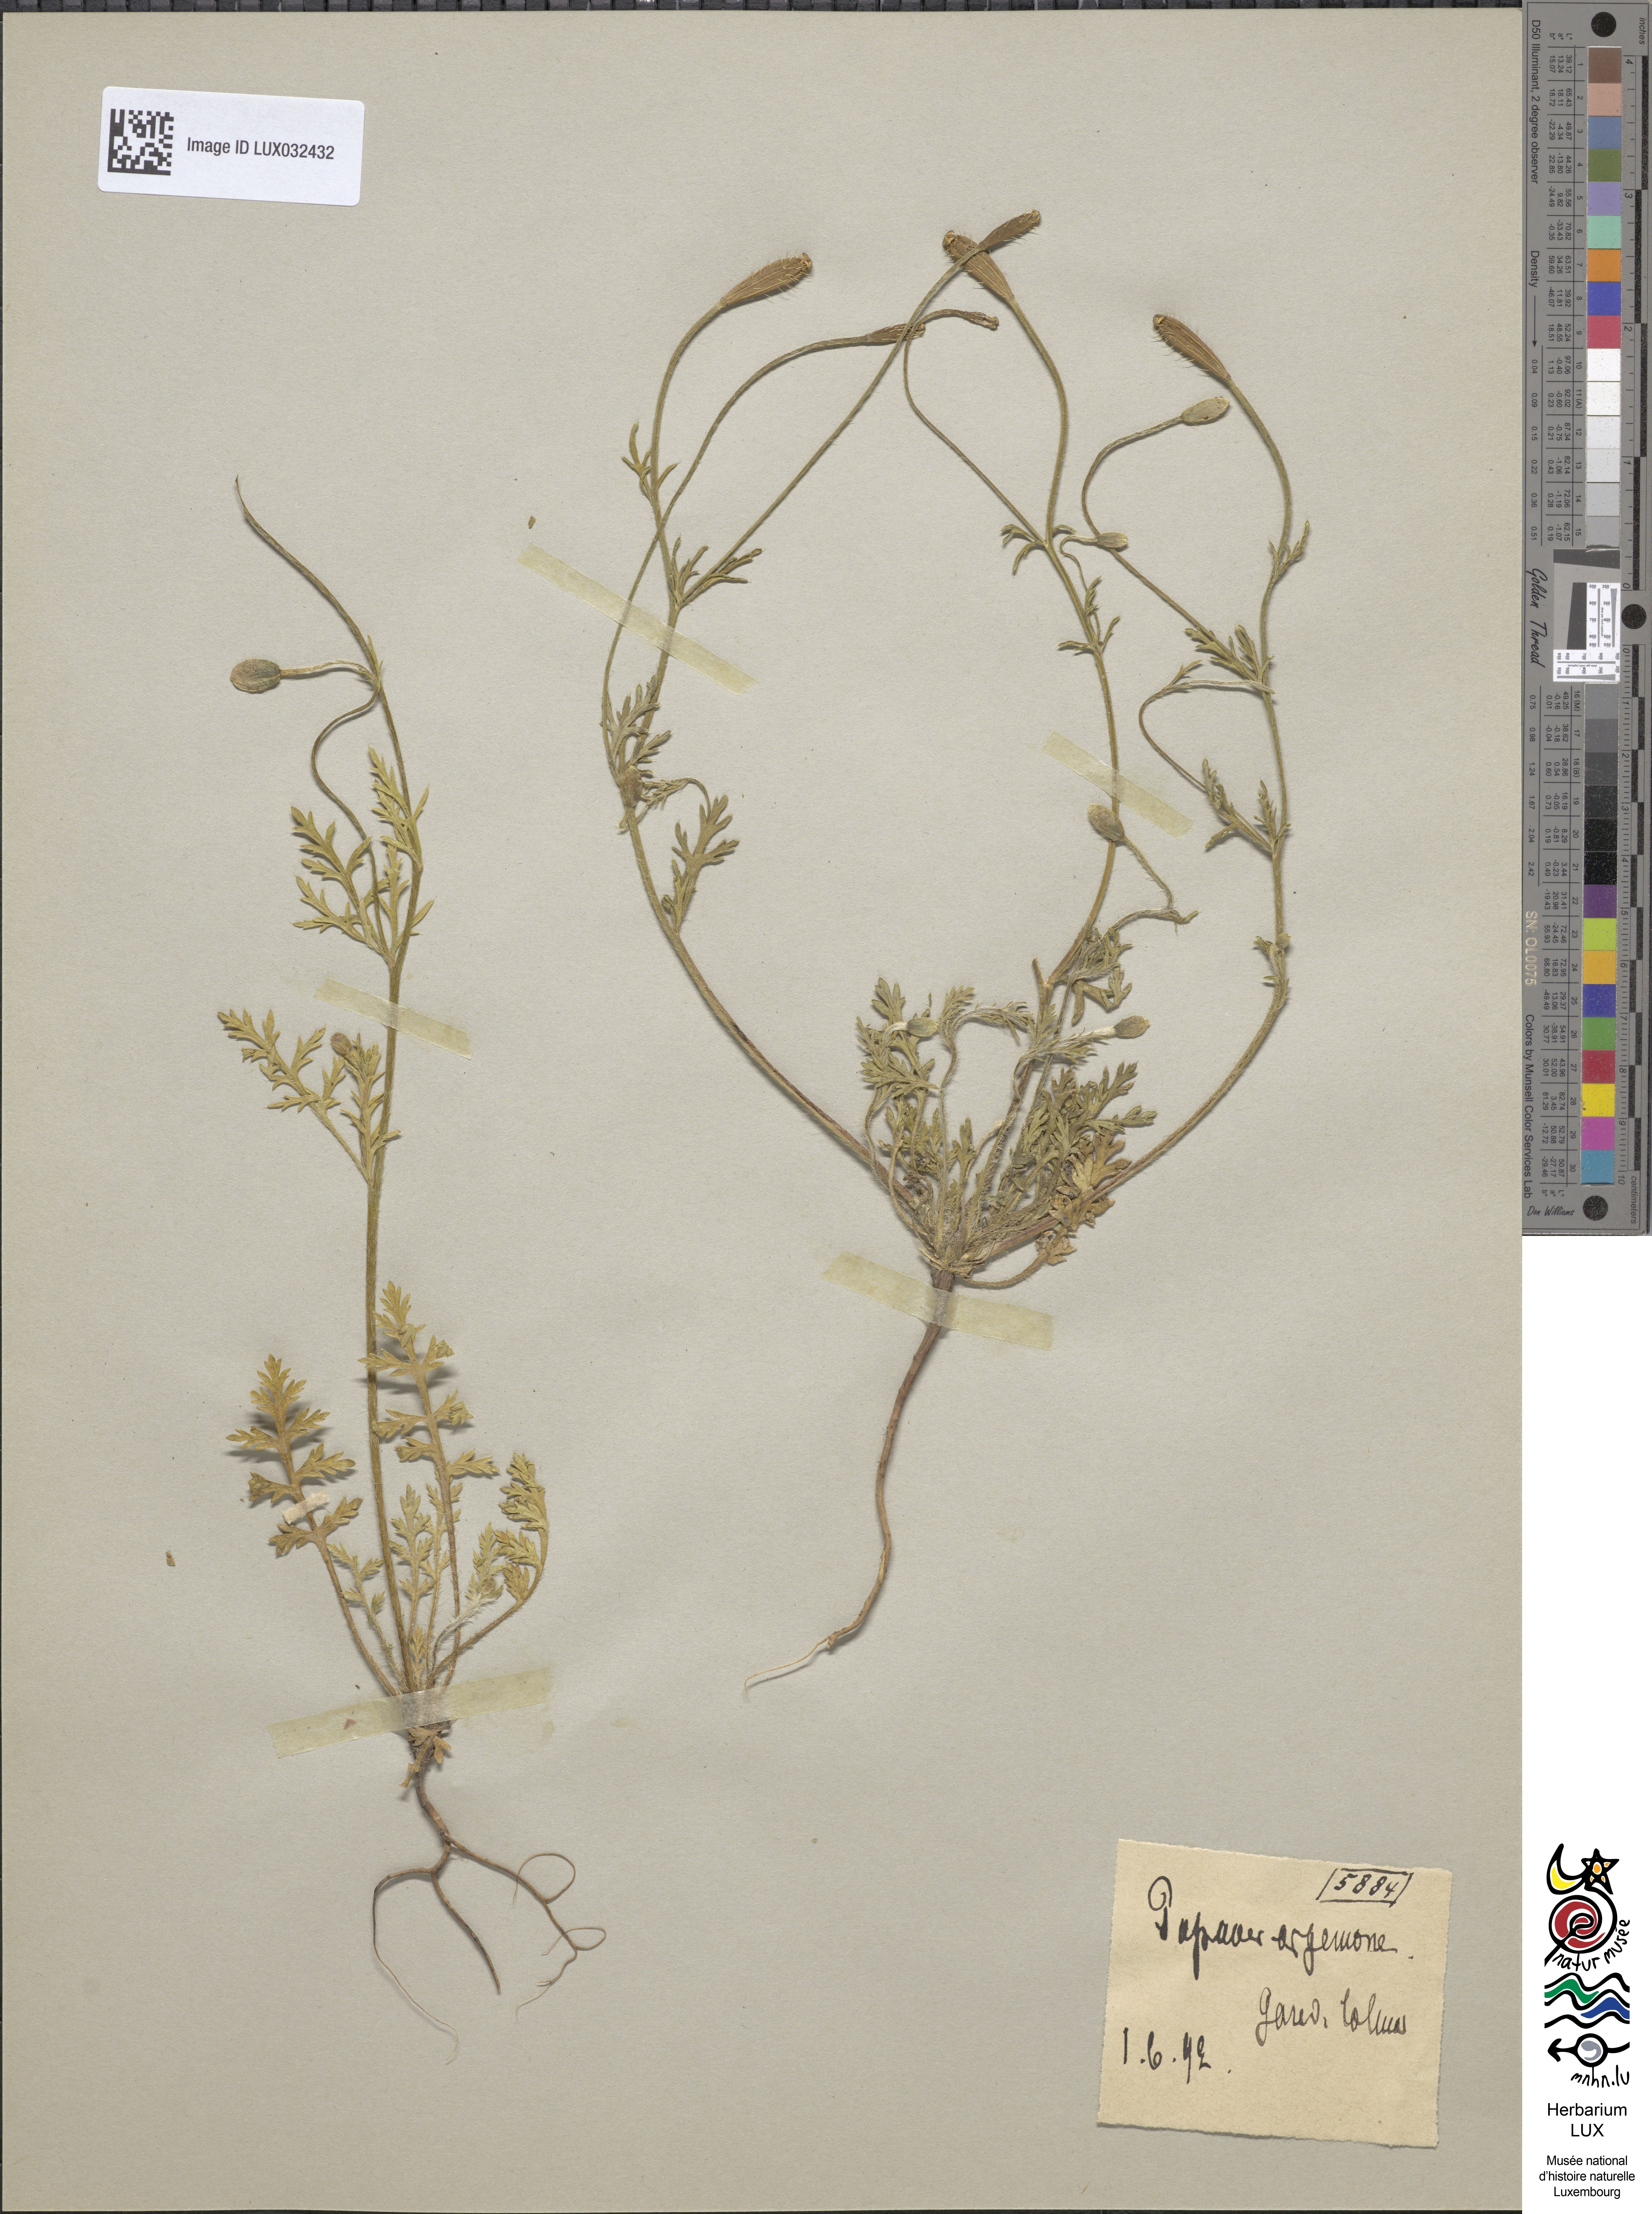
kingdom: Plantae
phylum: Tracheophyta
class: Magnoliopsida
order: Ranunculales
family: Papaveraceae
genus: Roemeria
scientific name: Roemeria argemone
